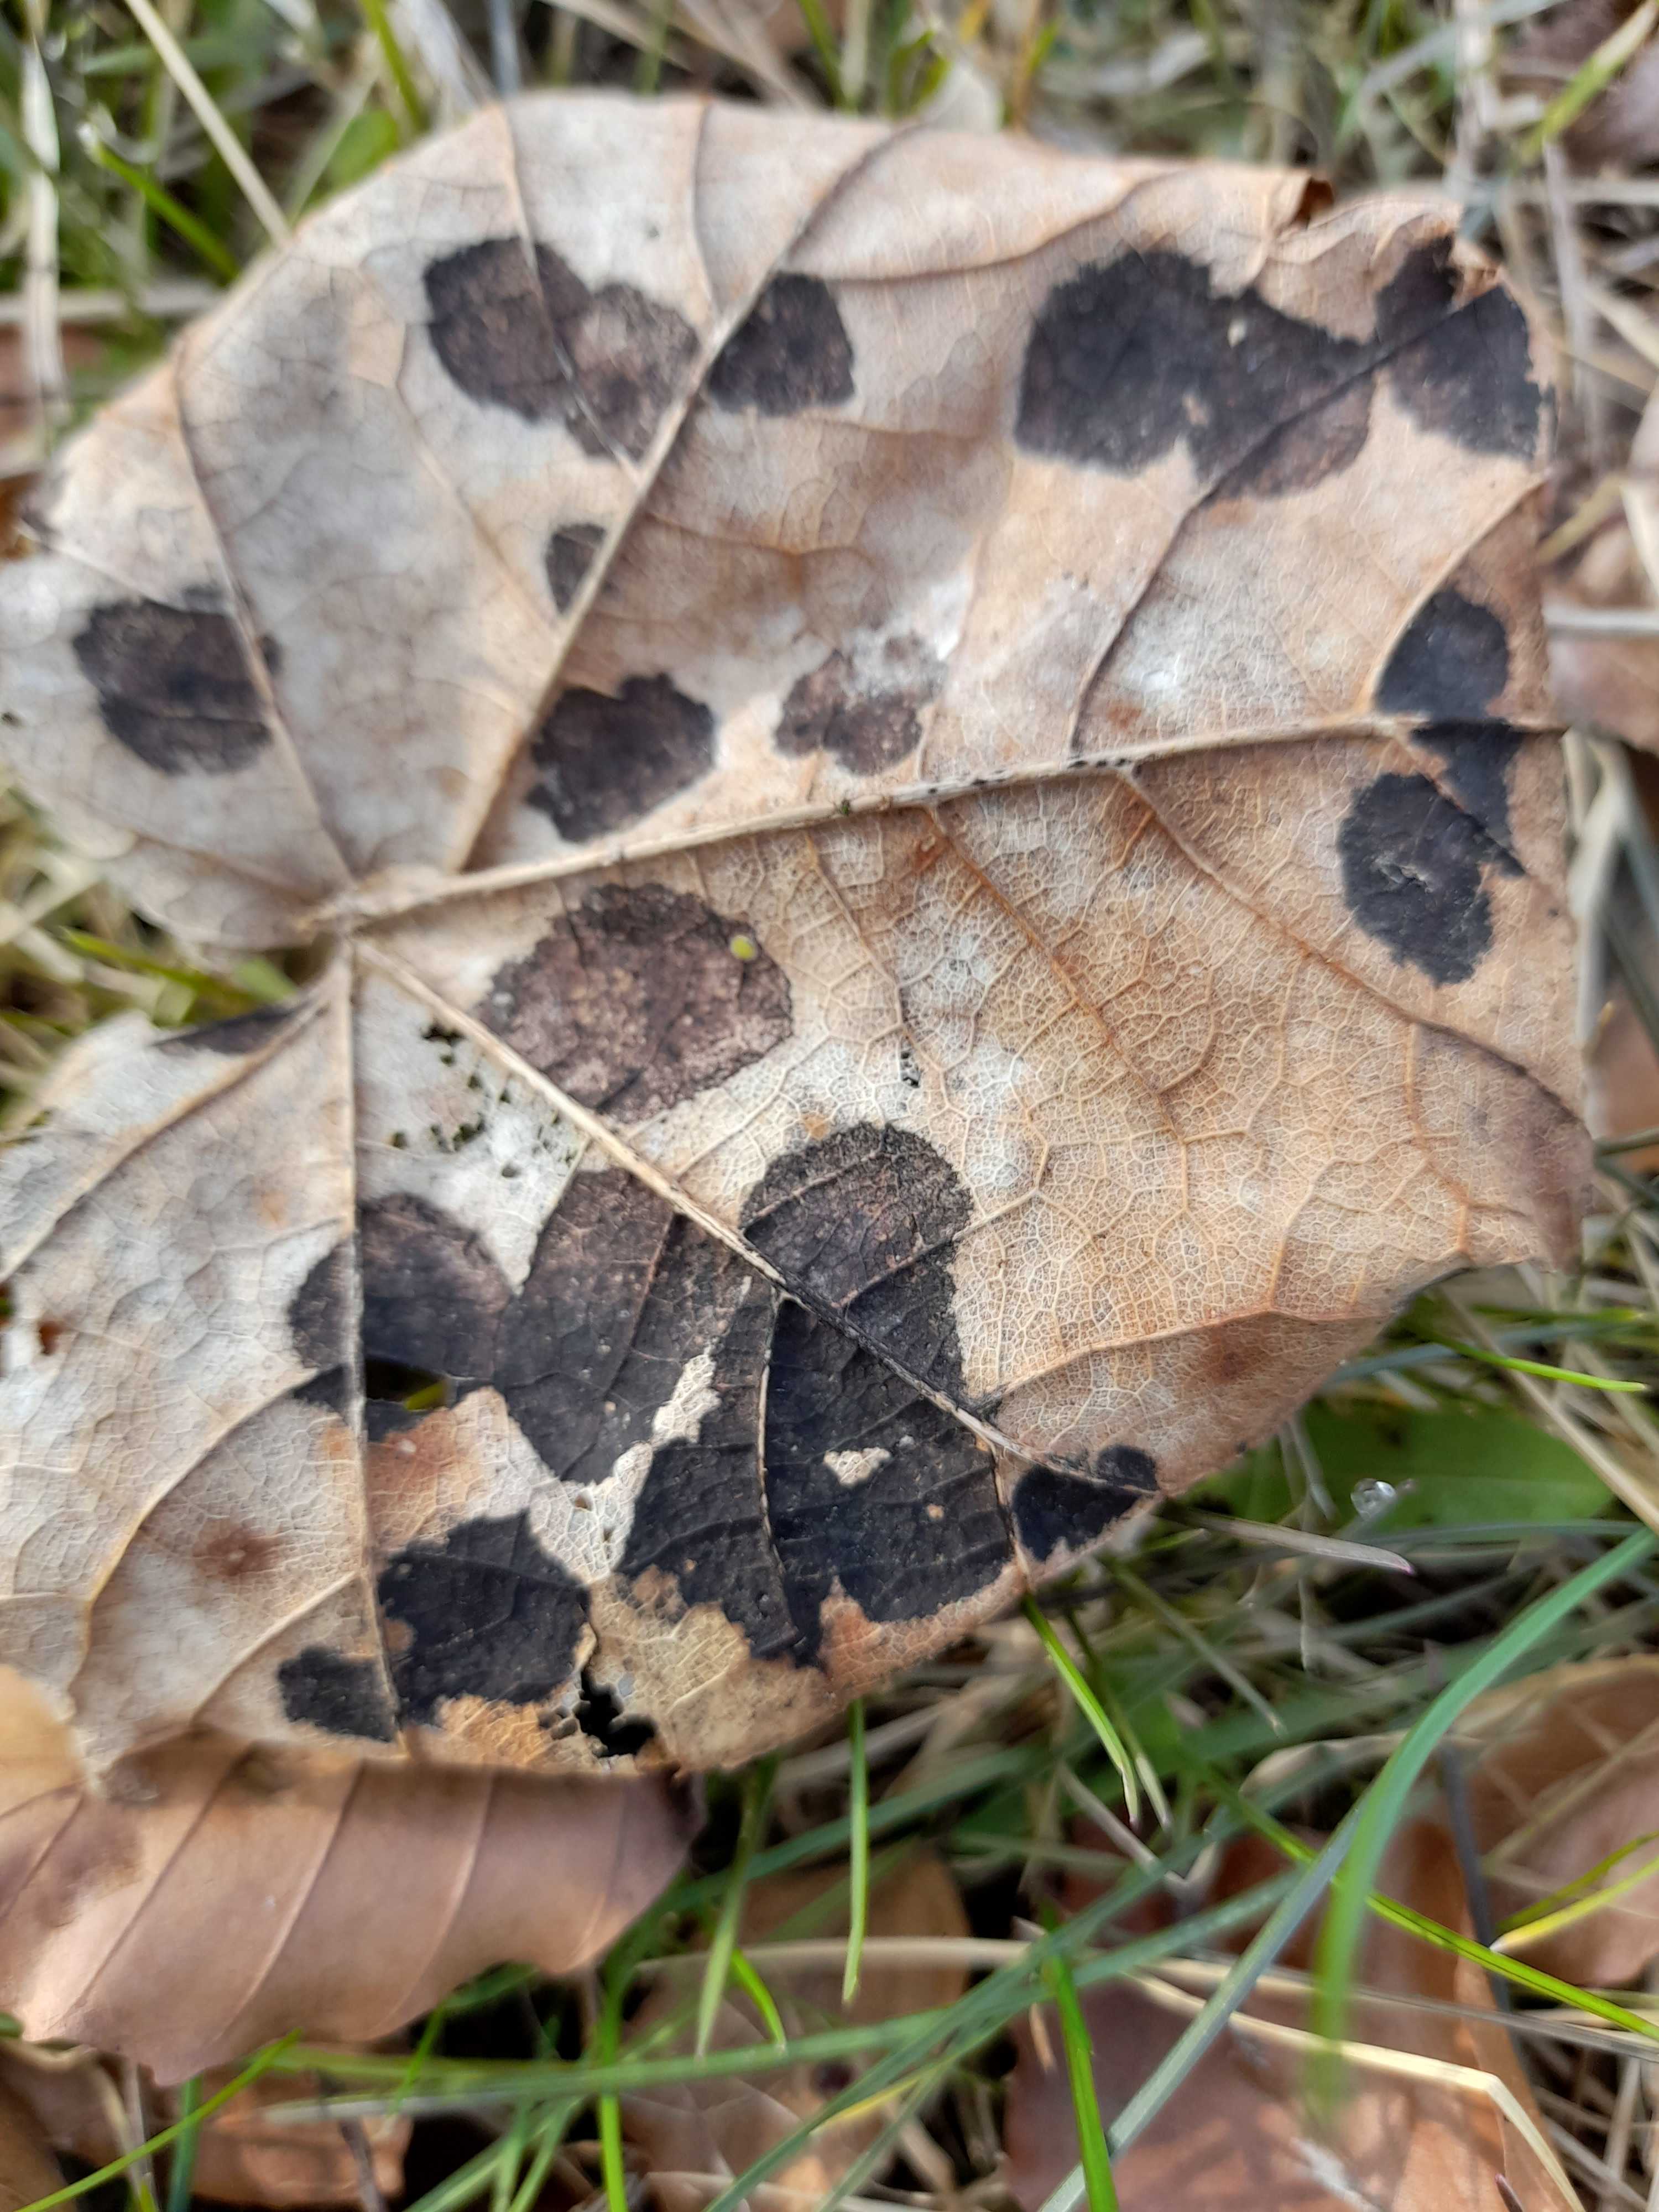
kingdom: Fungi
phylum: Ascomycota
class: Leotiomycetes
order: Rhytismatales
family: Rhytismataceae
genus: Rhytisma
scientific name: Rhytisma acerinum
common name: ahorn-rynkeplet
